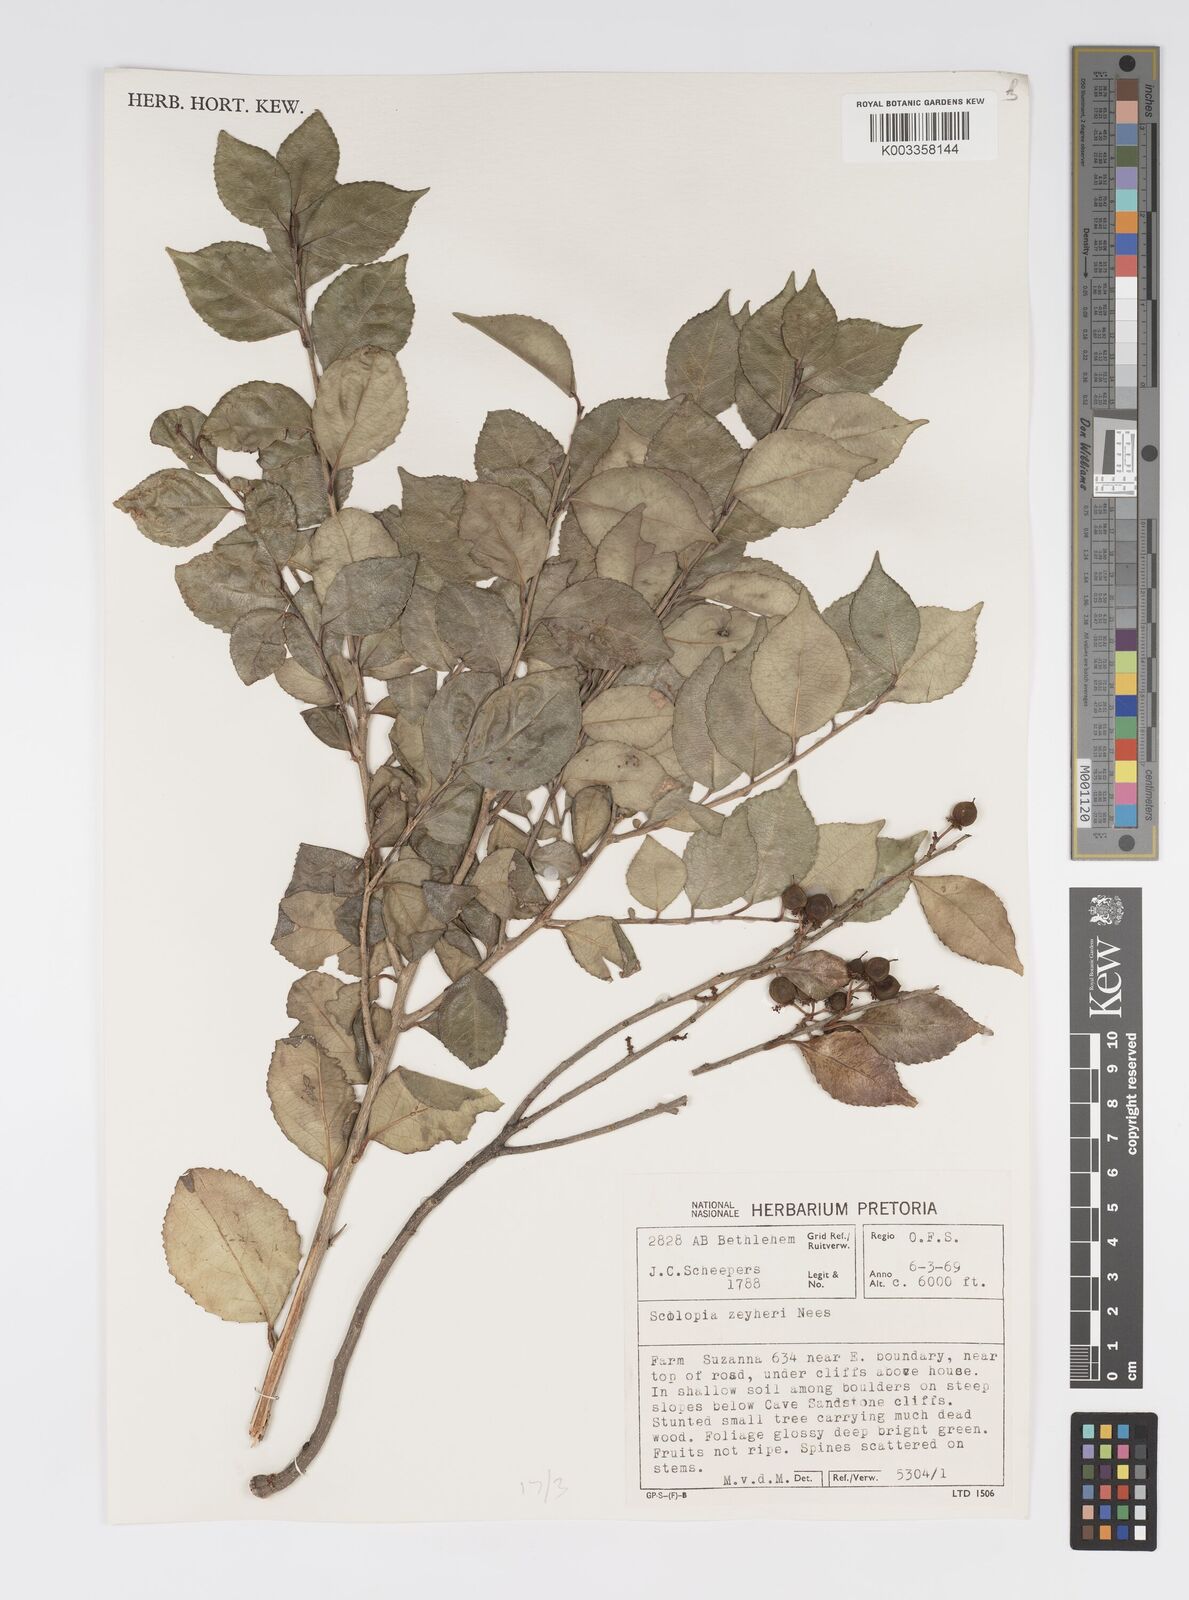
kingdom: Plantae
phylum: Tracheophyta
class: Magnoliopsida
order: Malpighiales
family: Salicaceae
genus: Scolopia
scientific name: Scolopia zeyheri
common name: Thorn pear
